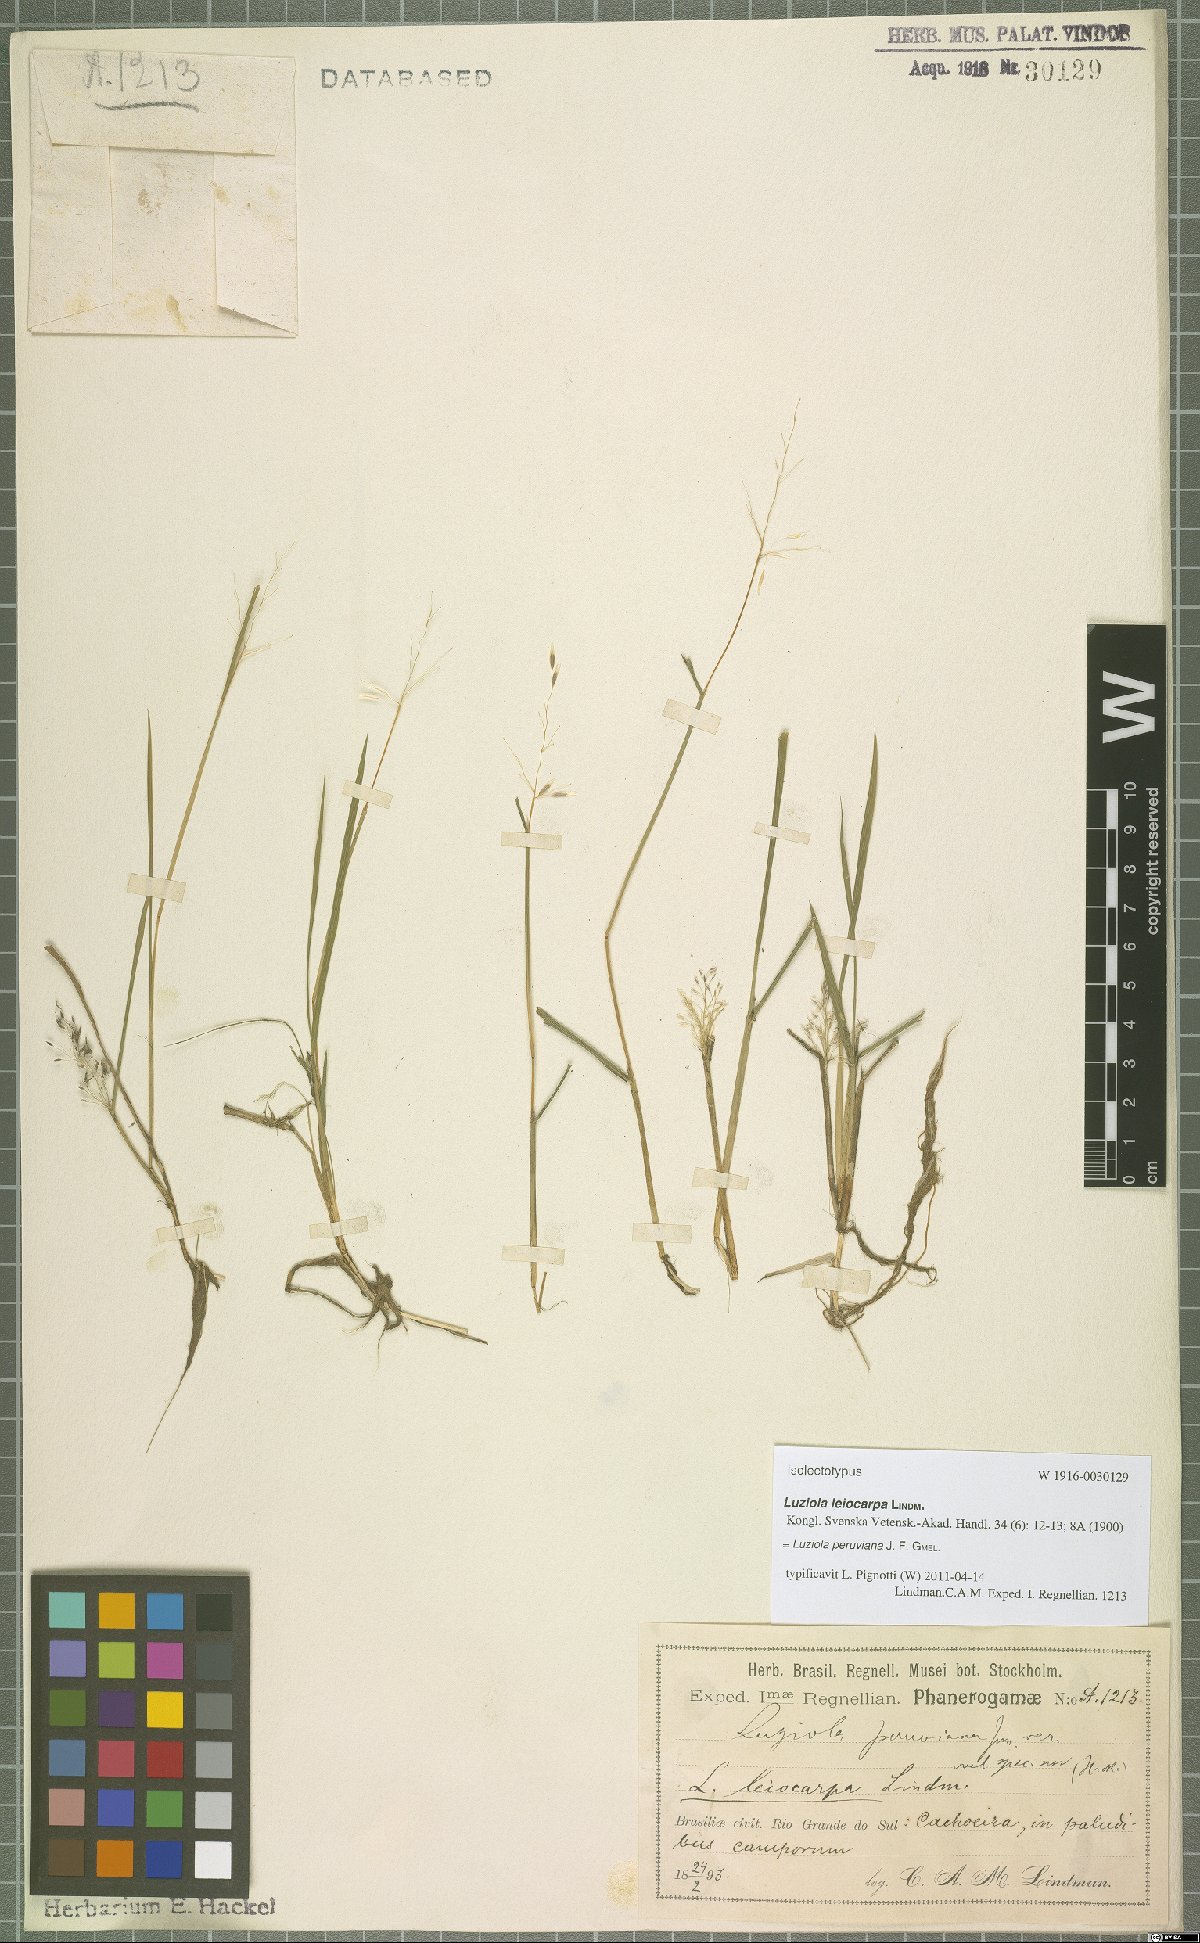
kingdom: Plantae
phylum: Tracheophyta
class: Liliopsida
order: Poales
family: Poaceae
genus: Luziola
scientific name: Luziola peruviana
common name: Peruvian watergrass
